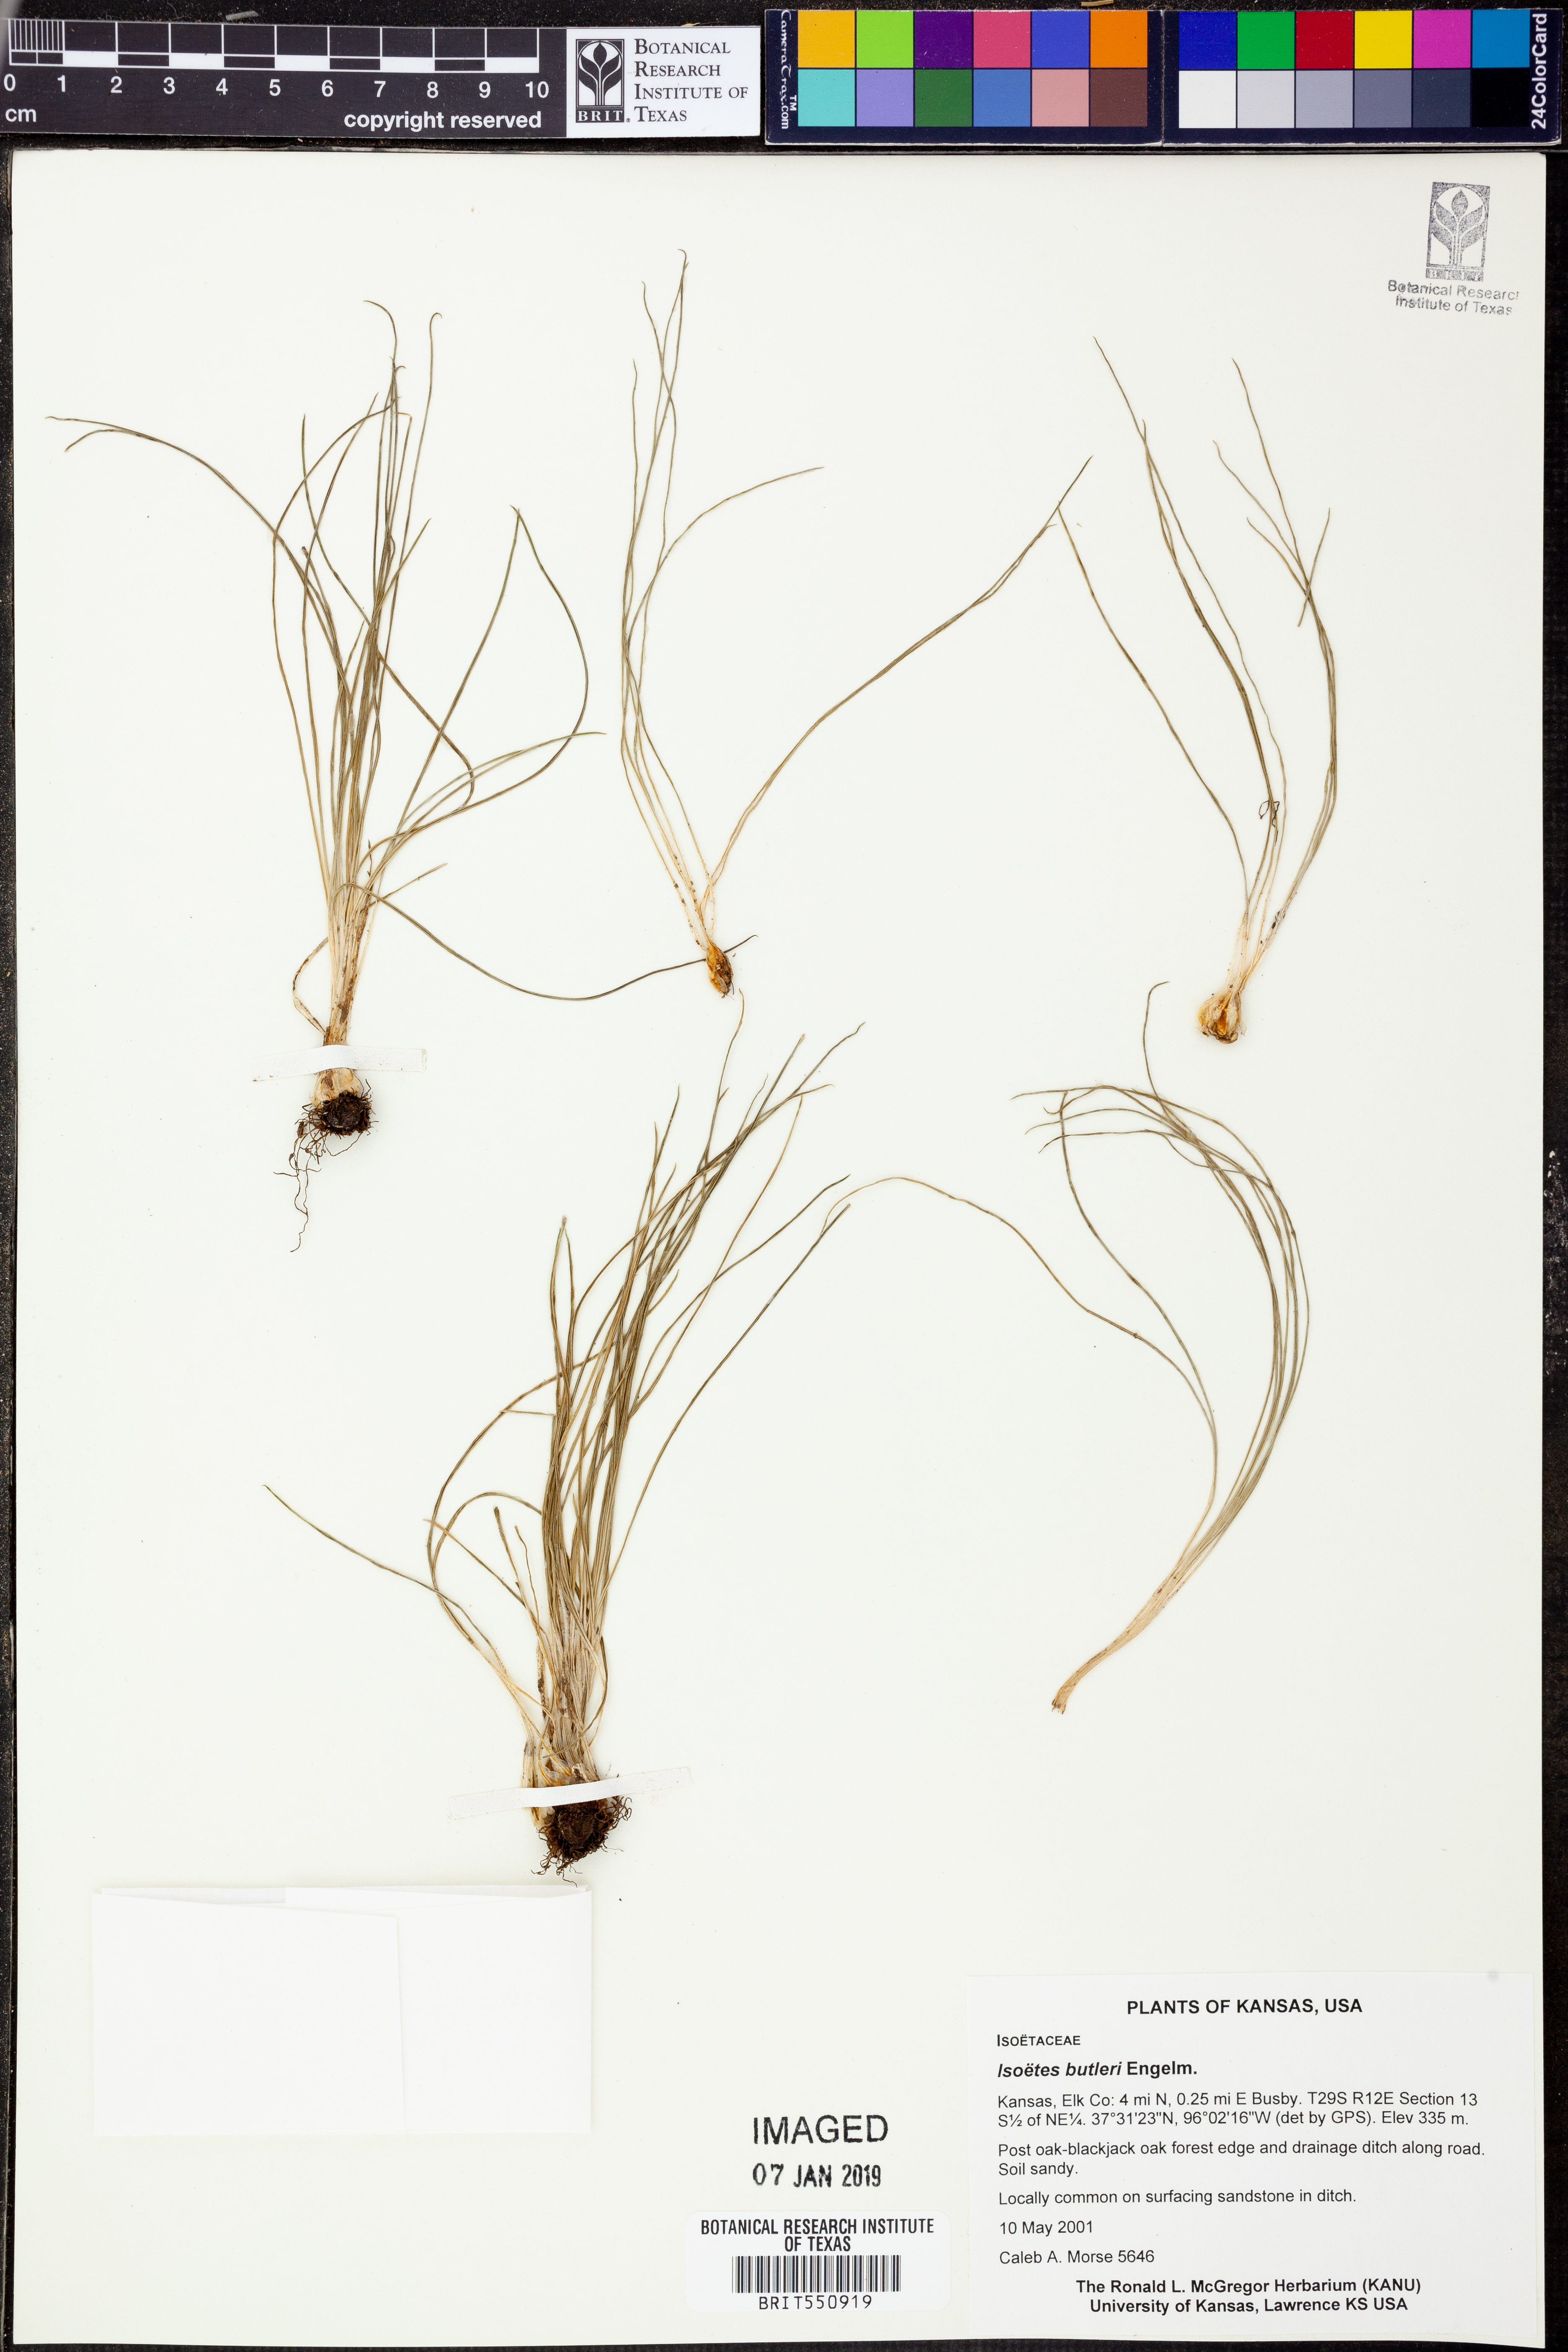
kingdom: Plantae
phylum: Tracheophyta
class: Lycopodiopsida
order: Isoetales
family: Isoetaceae
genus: Isoetes
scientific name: Isoetes butleri
